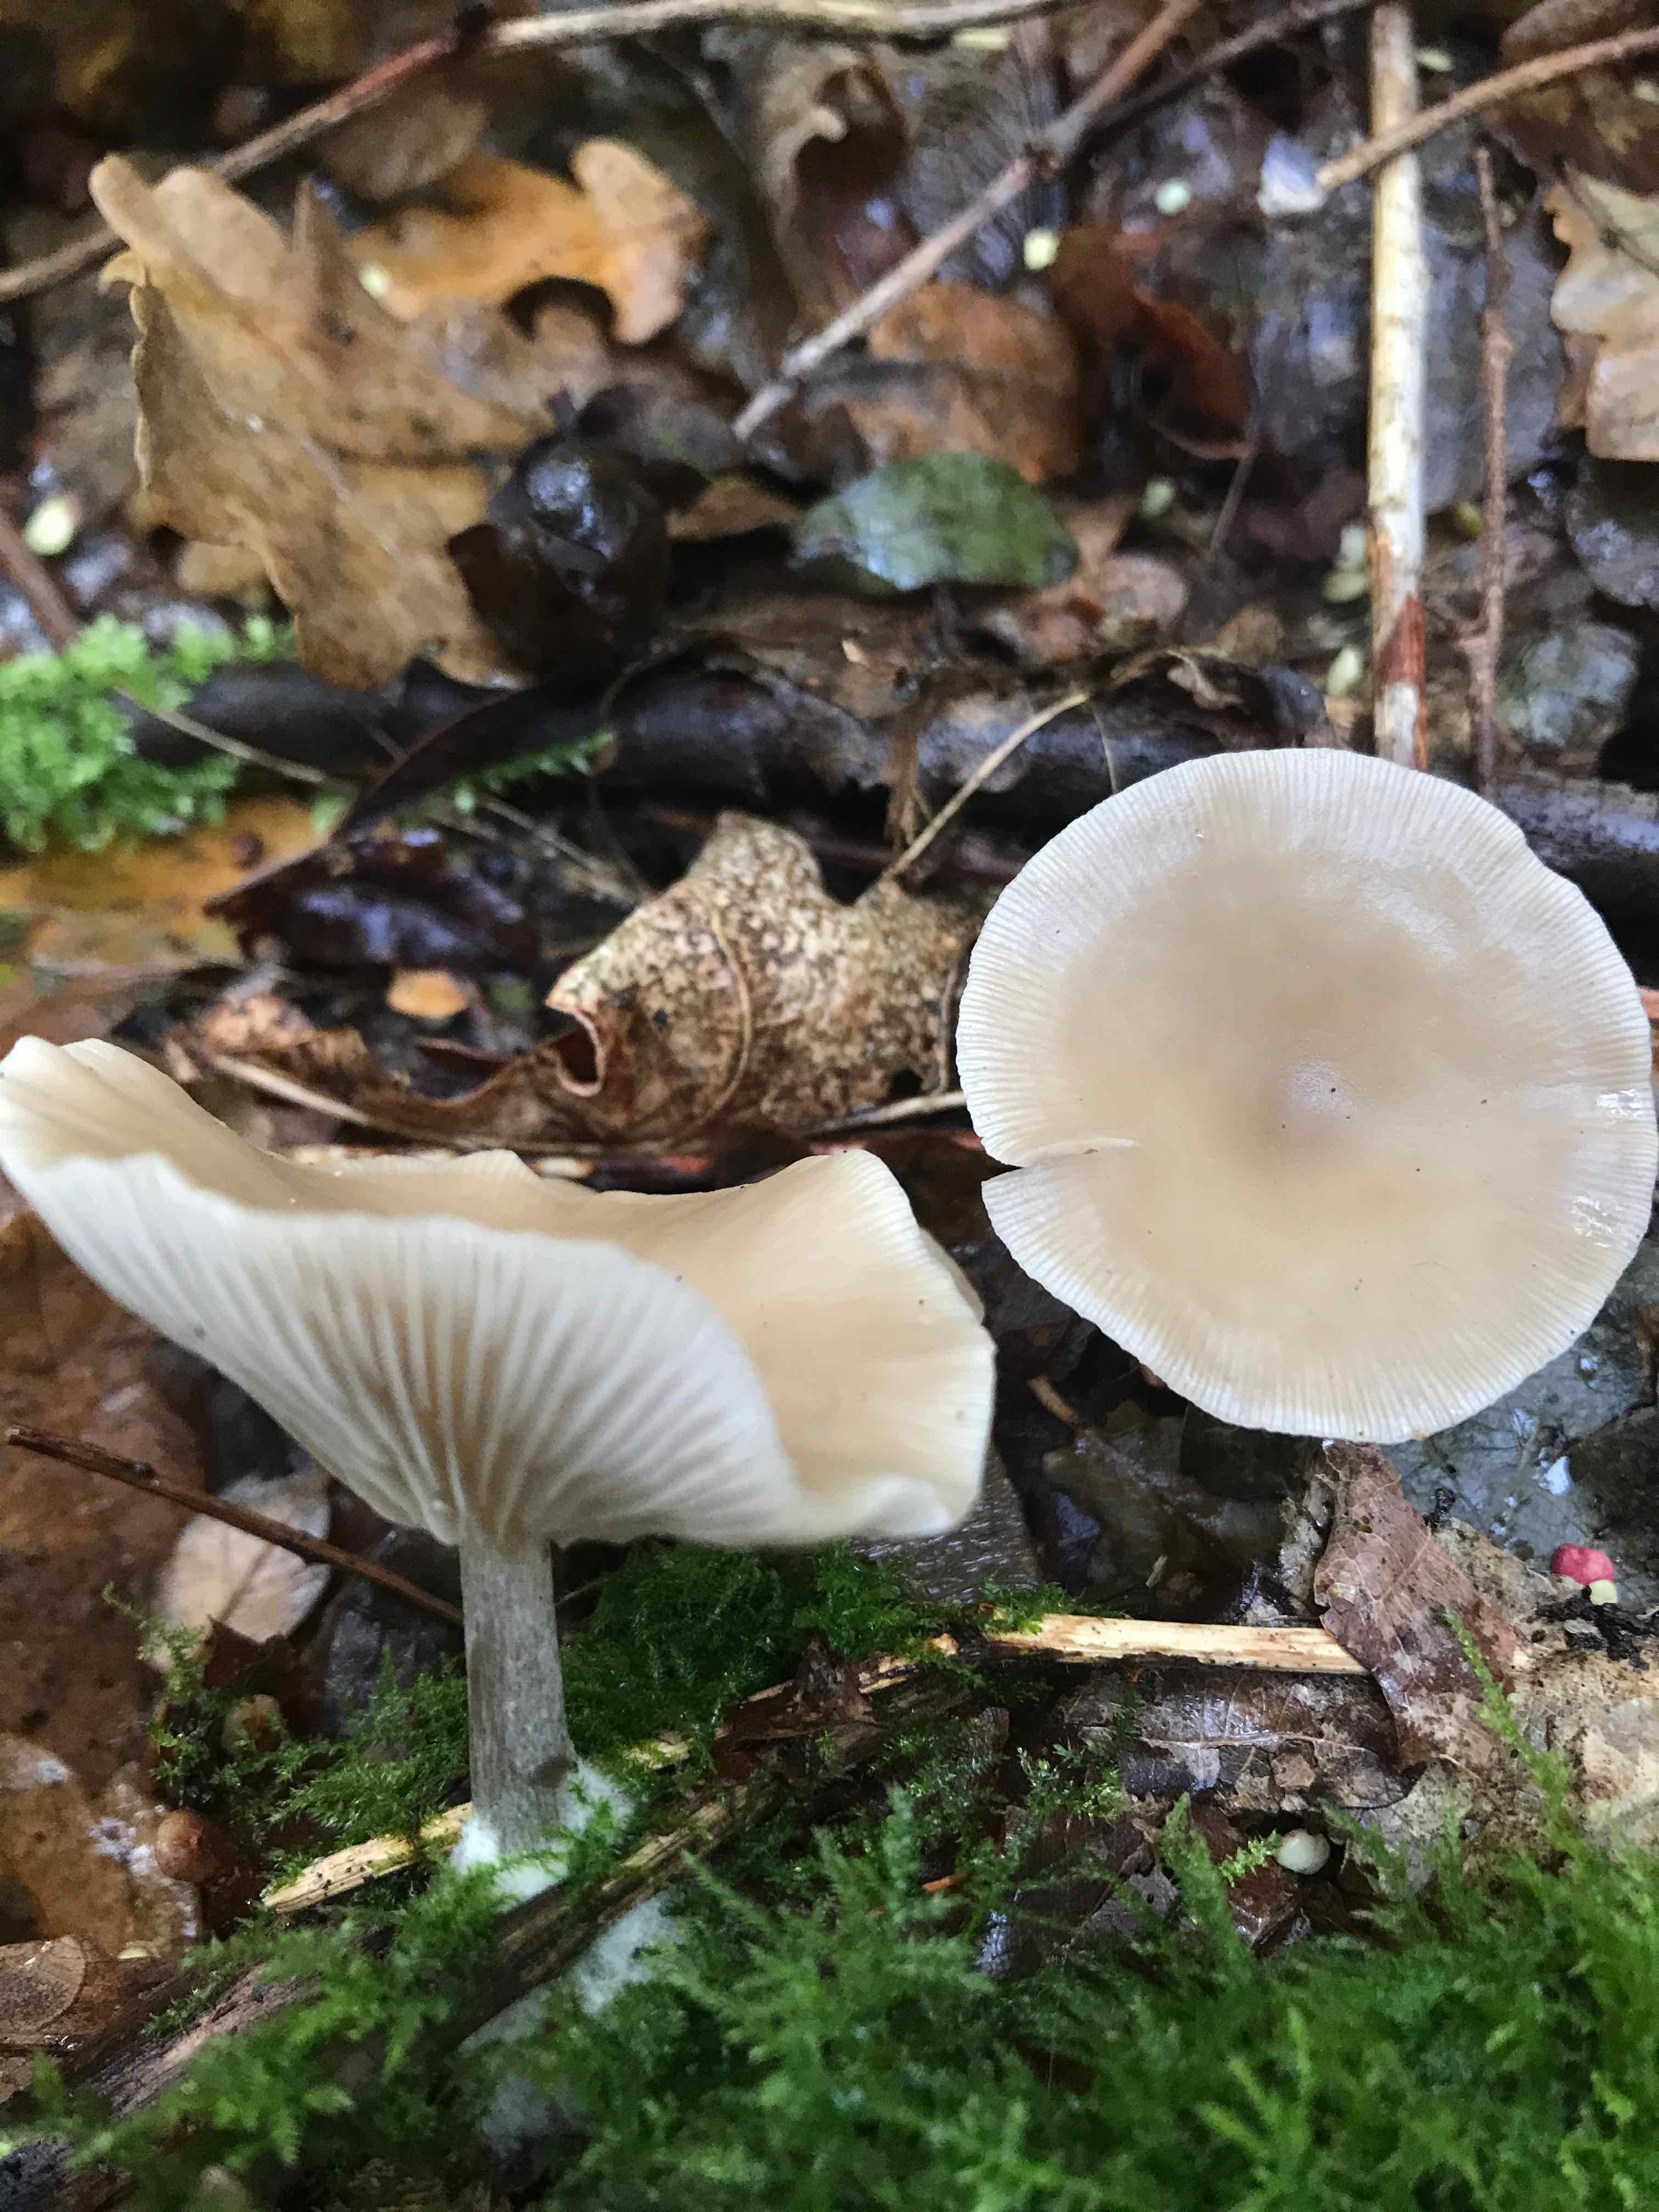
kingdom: Fungi
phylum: Basidiomycota
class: Agaricomycetes
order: Agaricales
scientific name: Agaricales
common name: champignonordenen
